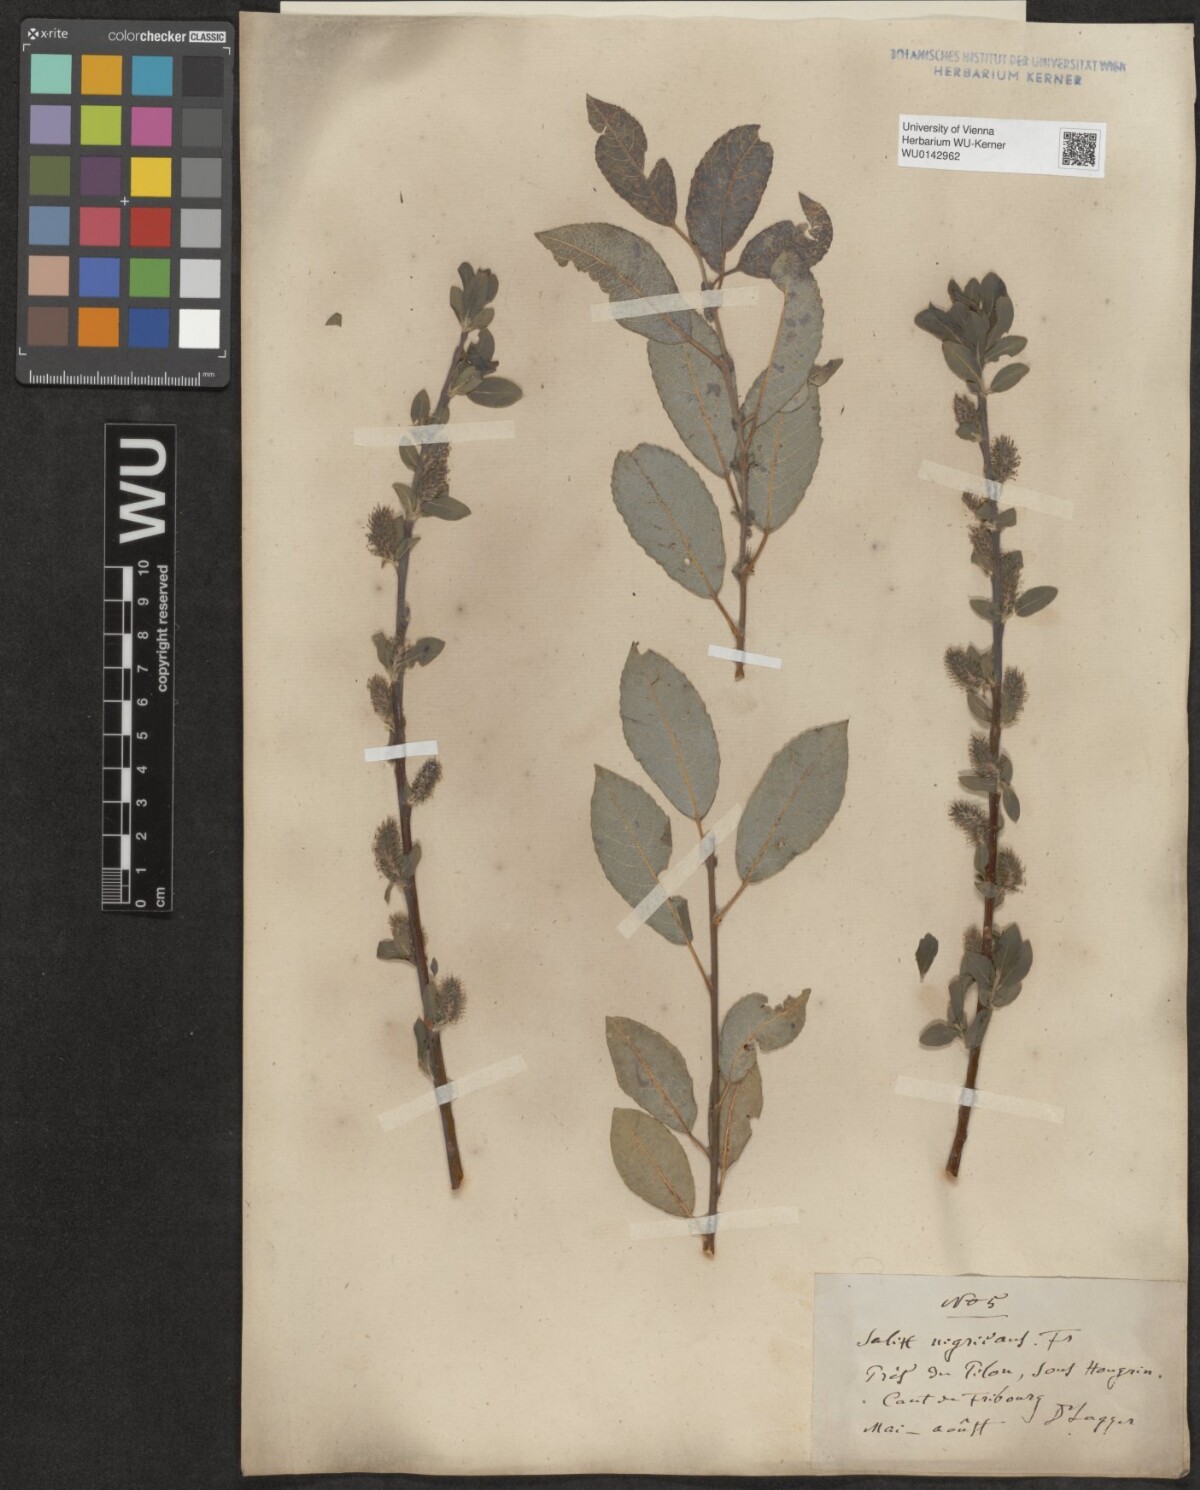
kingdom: Plantae
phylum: Tracheophyta
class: Magnoliopsida
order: Malpighiales
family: Salicaceae
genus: Salix
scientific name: Salix myrsinifolia
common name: Dark-leaved willow
